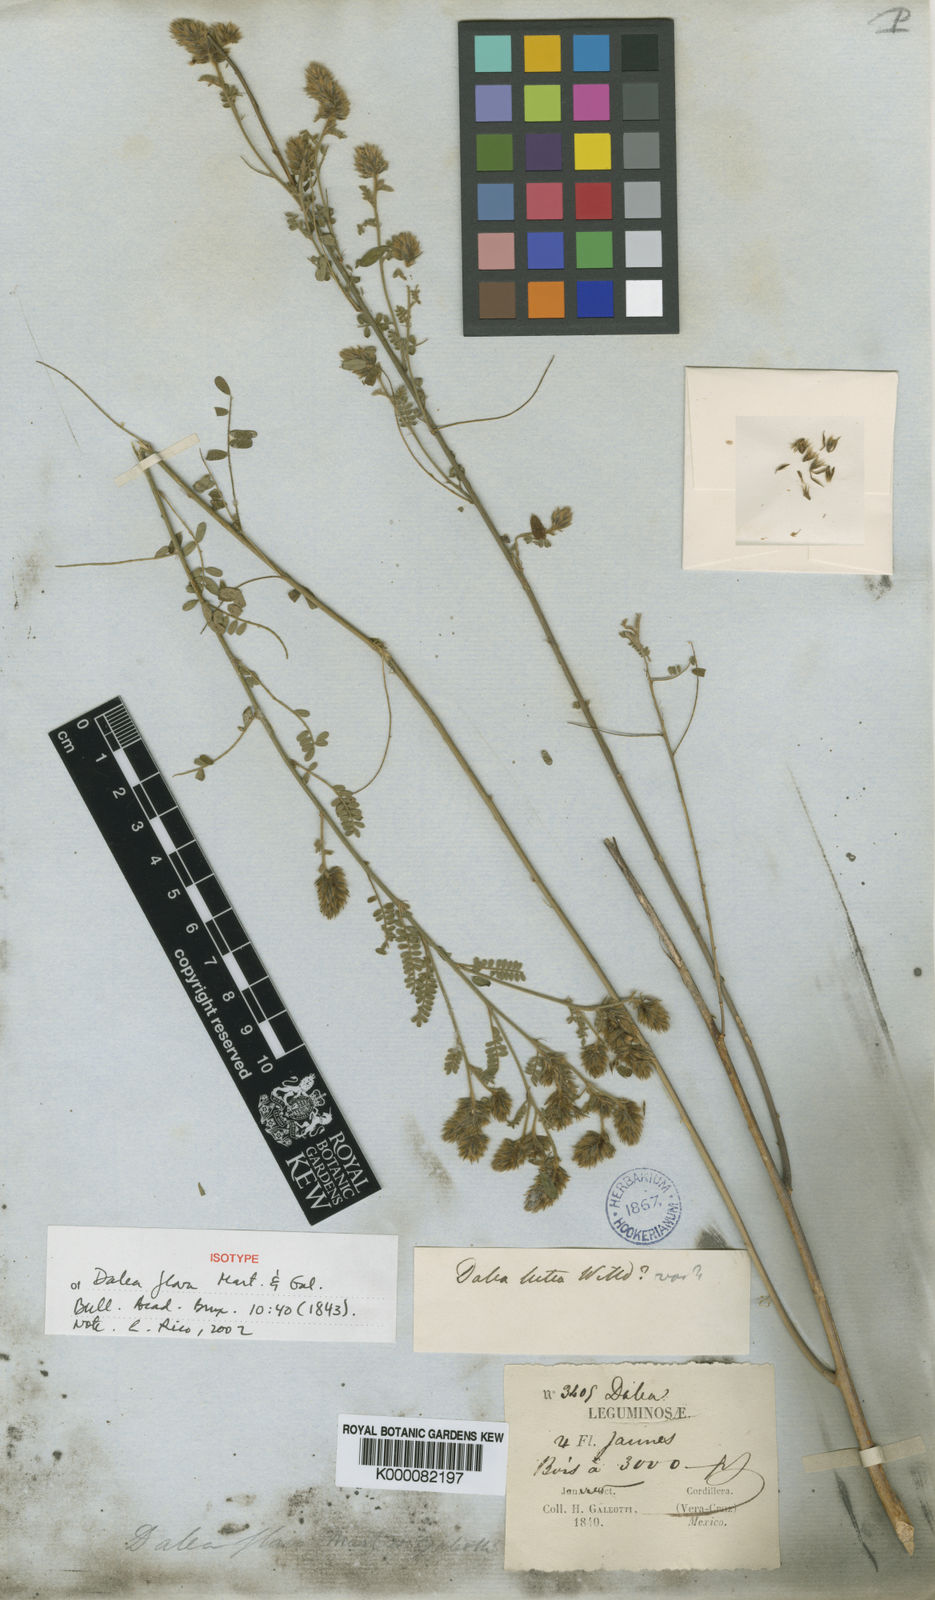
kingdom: Plantae
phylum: Tracheophyta
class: Magnoliopsida
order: Fabales
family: Fabaceae
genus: Dalea
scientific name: Dalea elata
